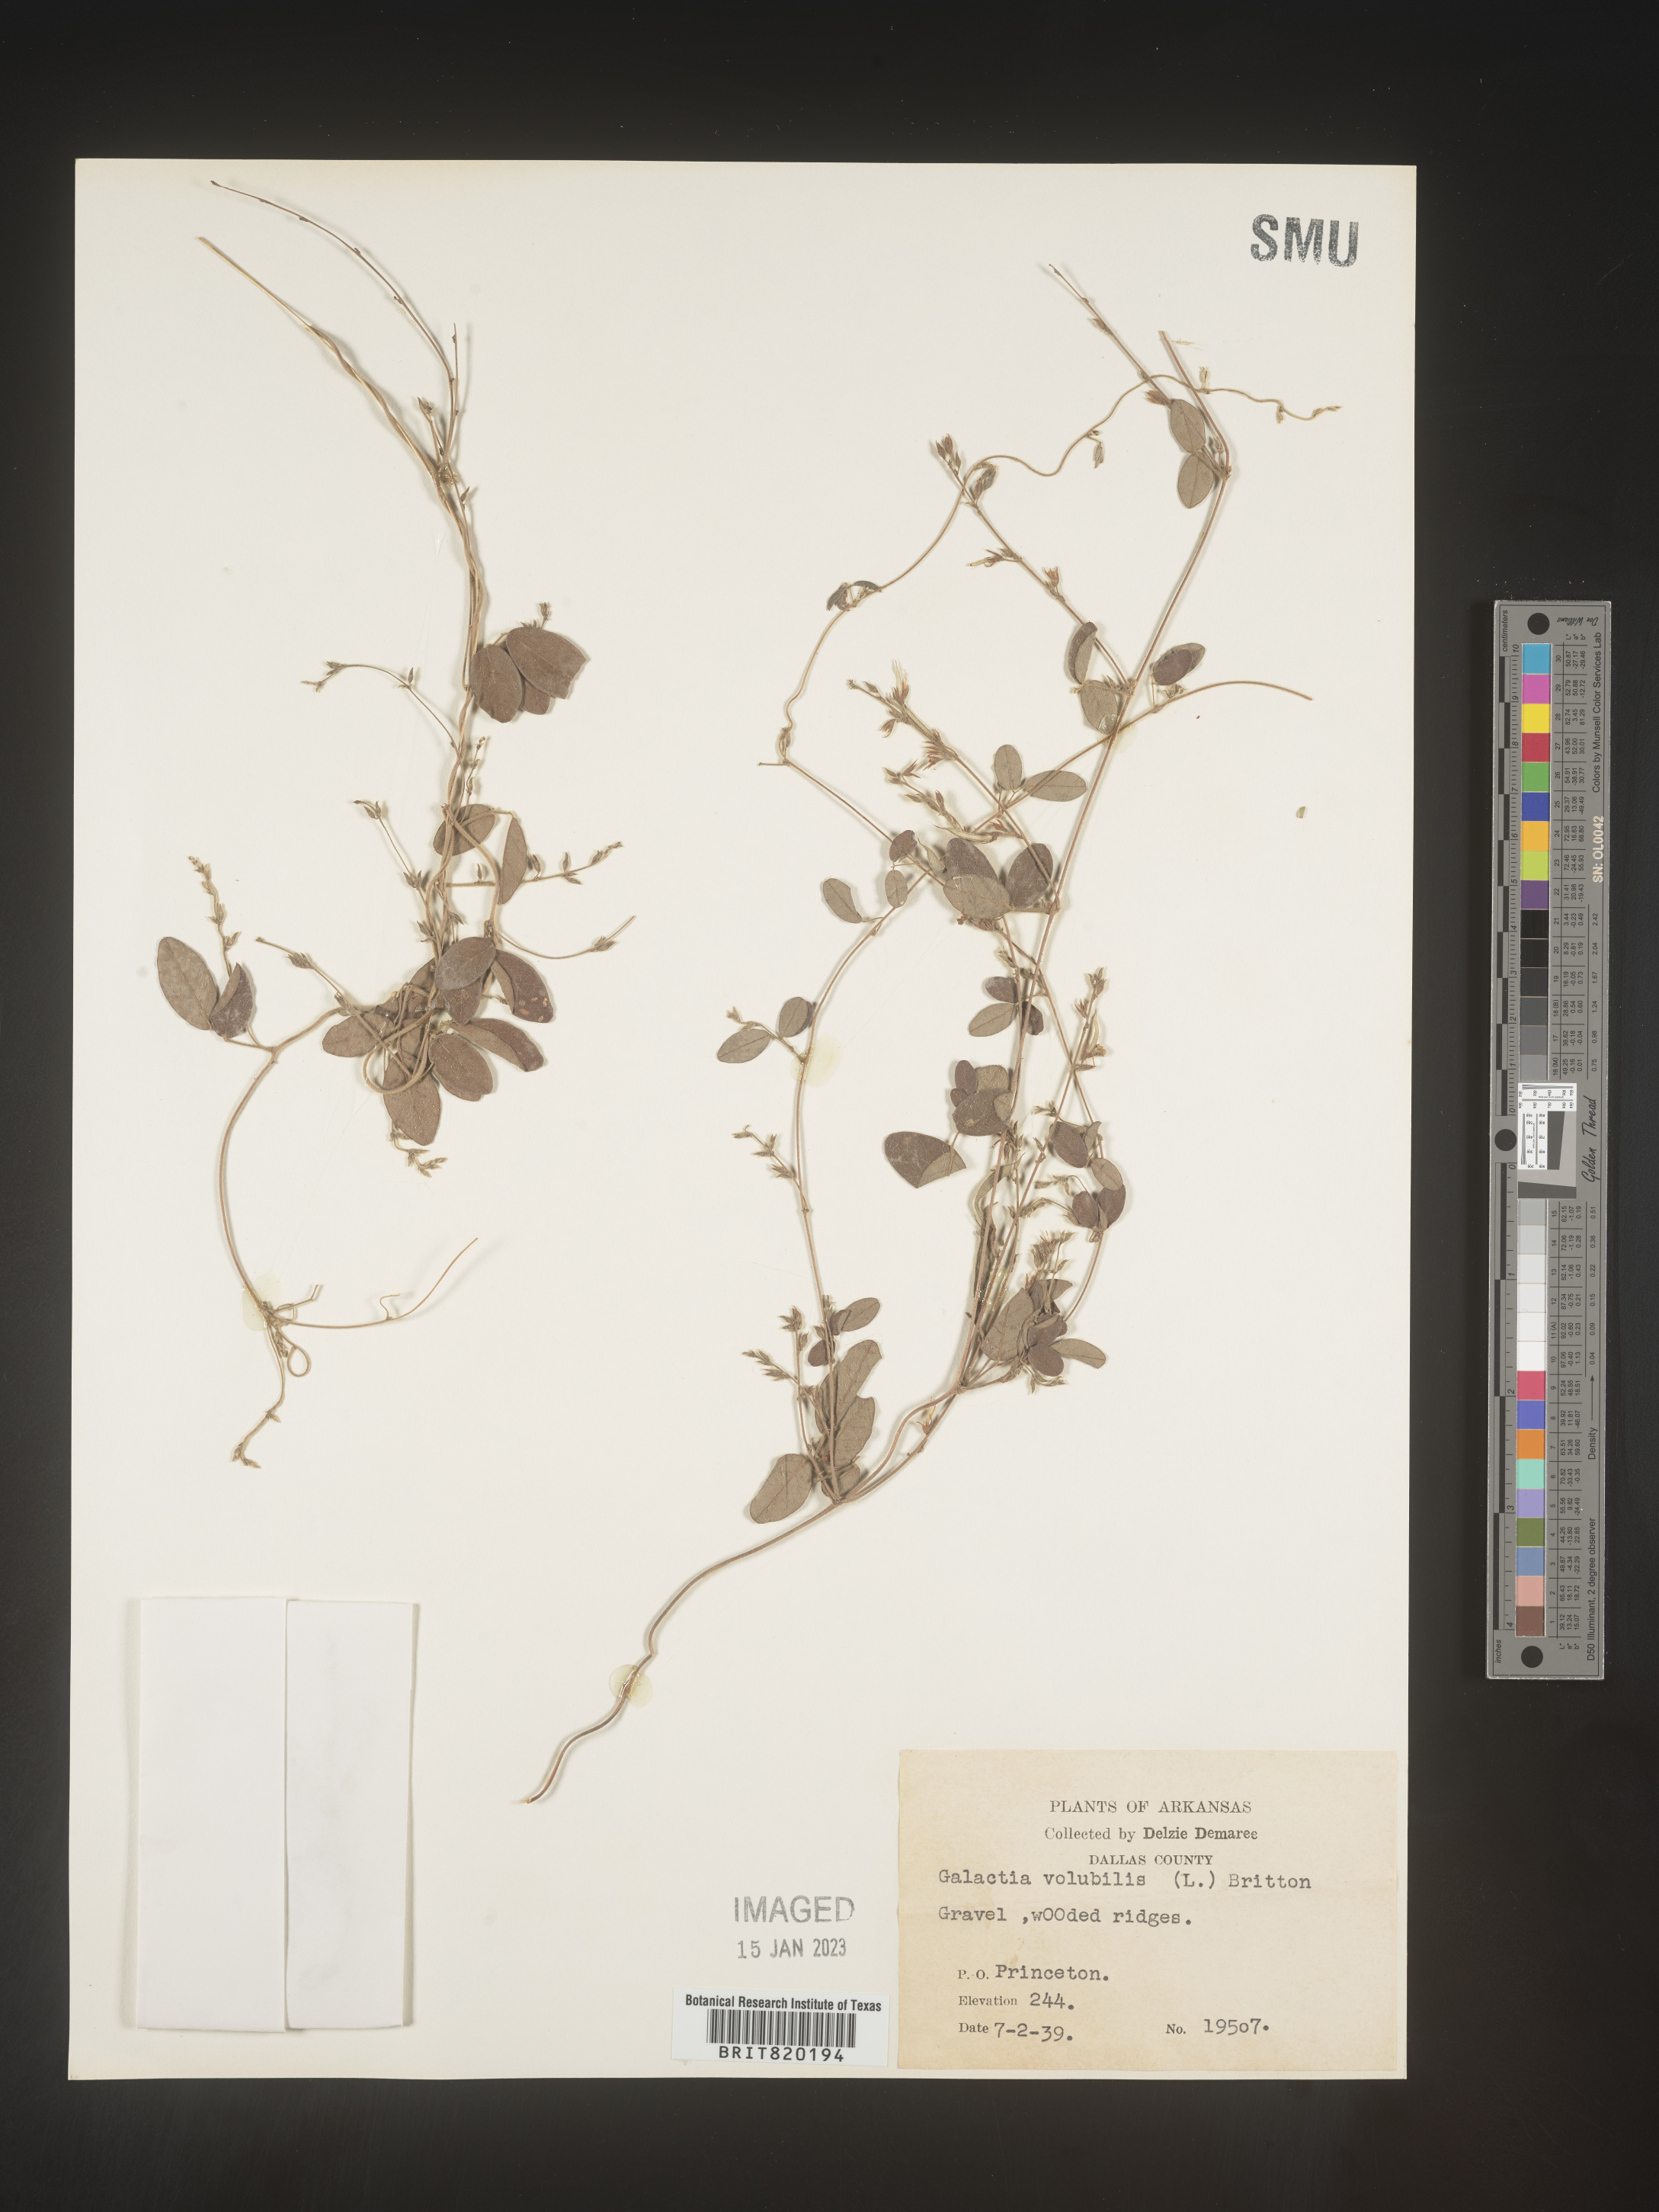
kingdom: Plantae
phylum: Tracheophyta
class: Magnoliopsida
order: Fabales
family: Fabaceae
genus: Galactia
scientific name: Galactia volubilis
